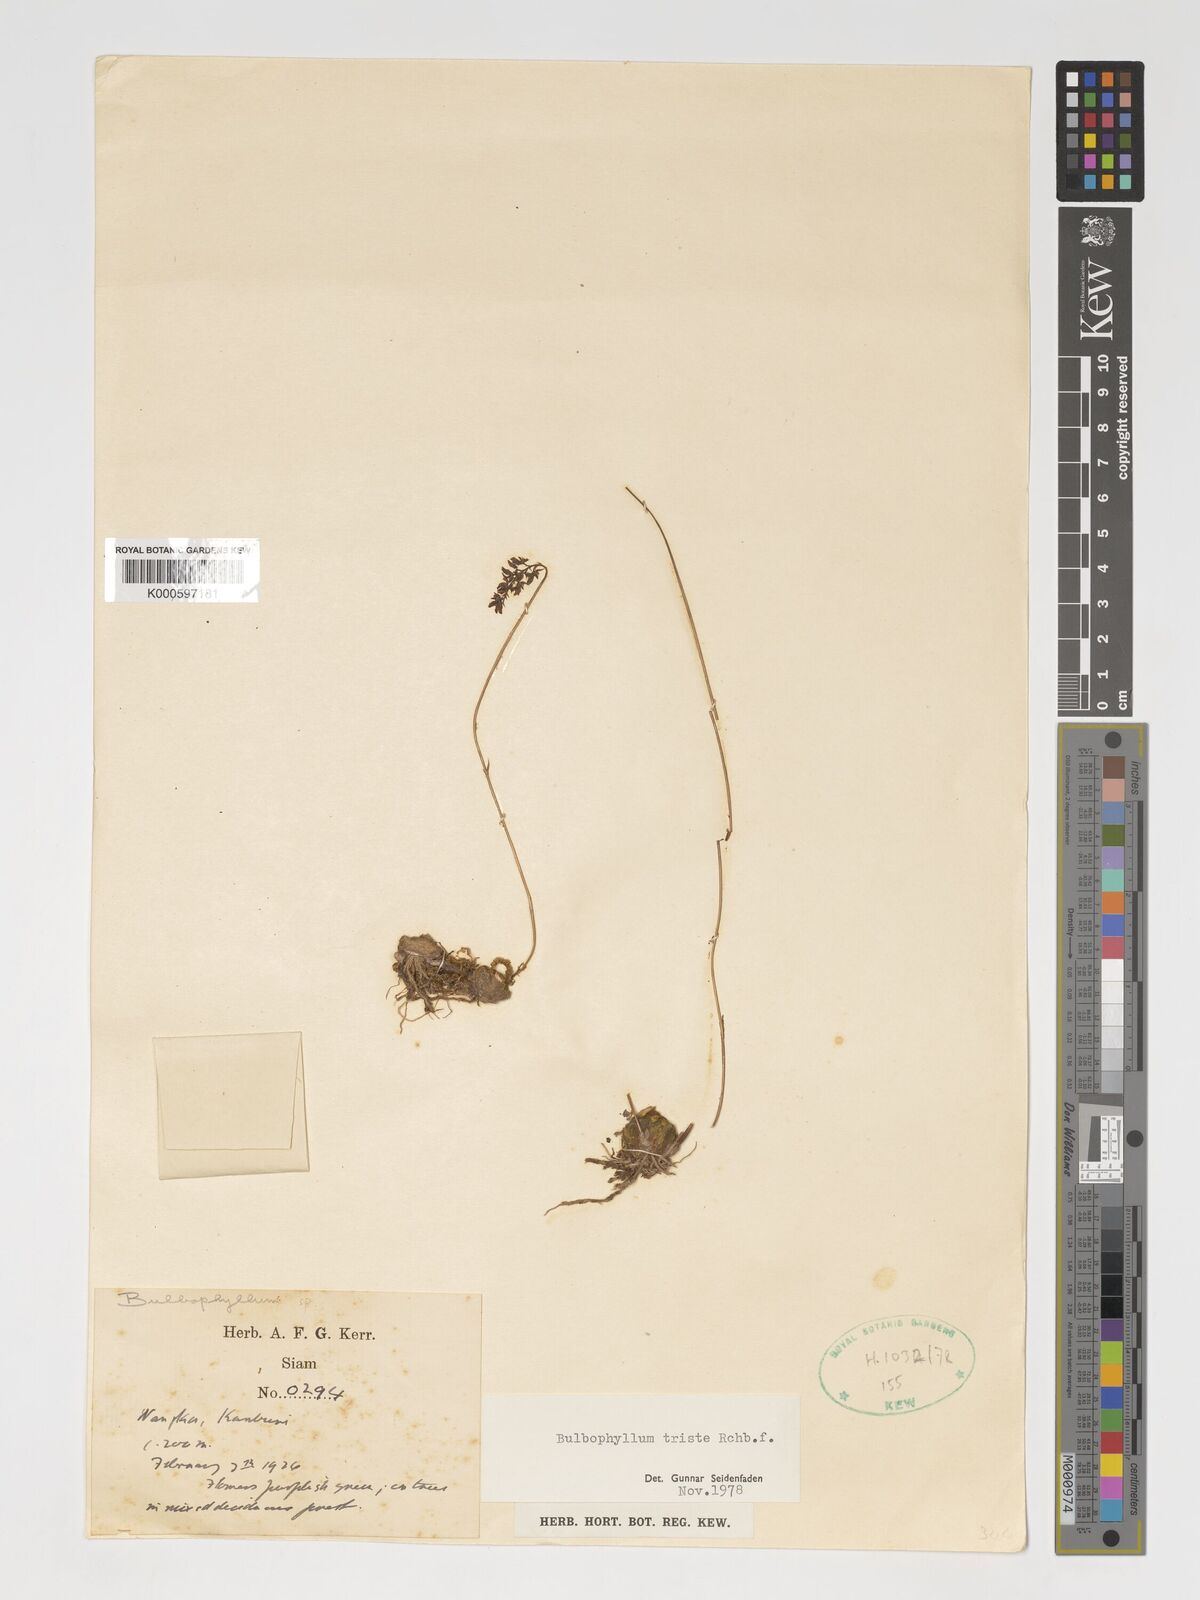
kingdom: Plantae
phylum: Tracheophyta
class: Liliopsida
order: Asparagales
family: Orchidaceae
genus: Bulbophyllum
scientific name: Bulbophyllum triste
